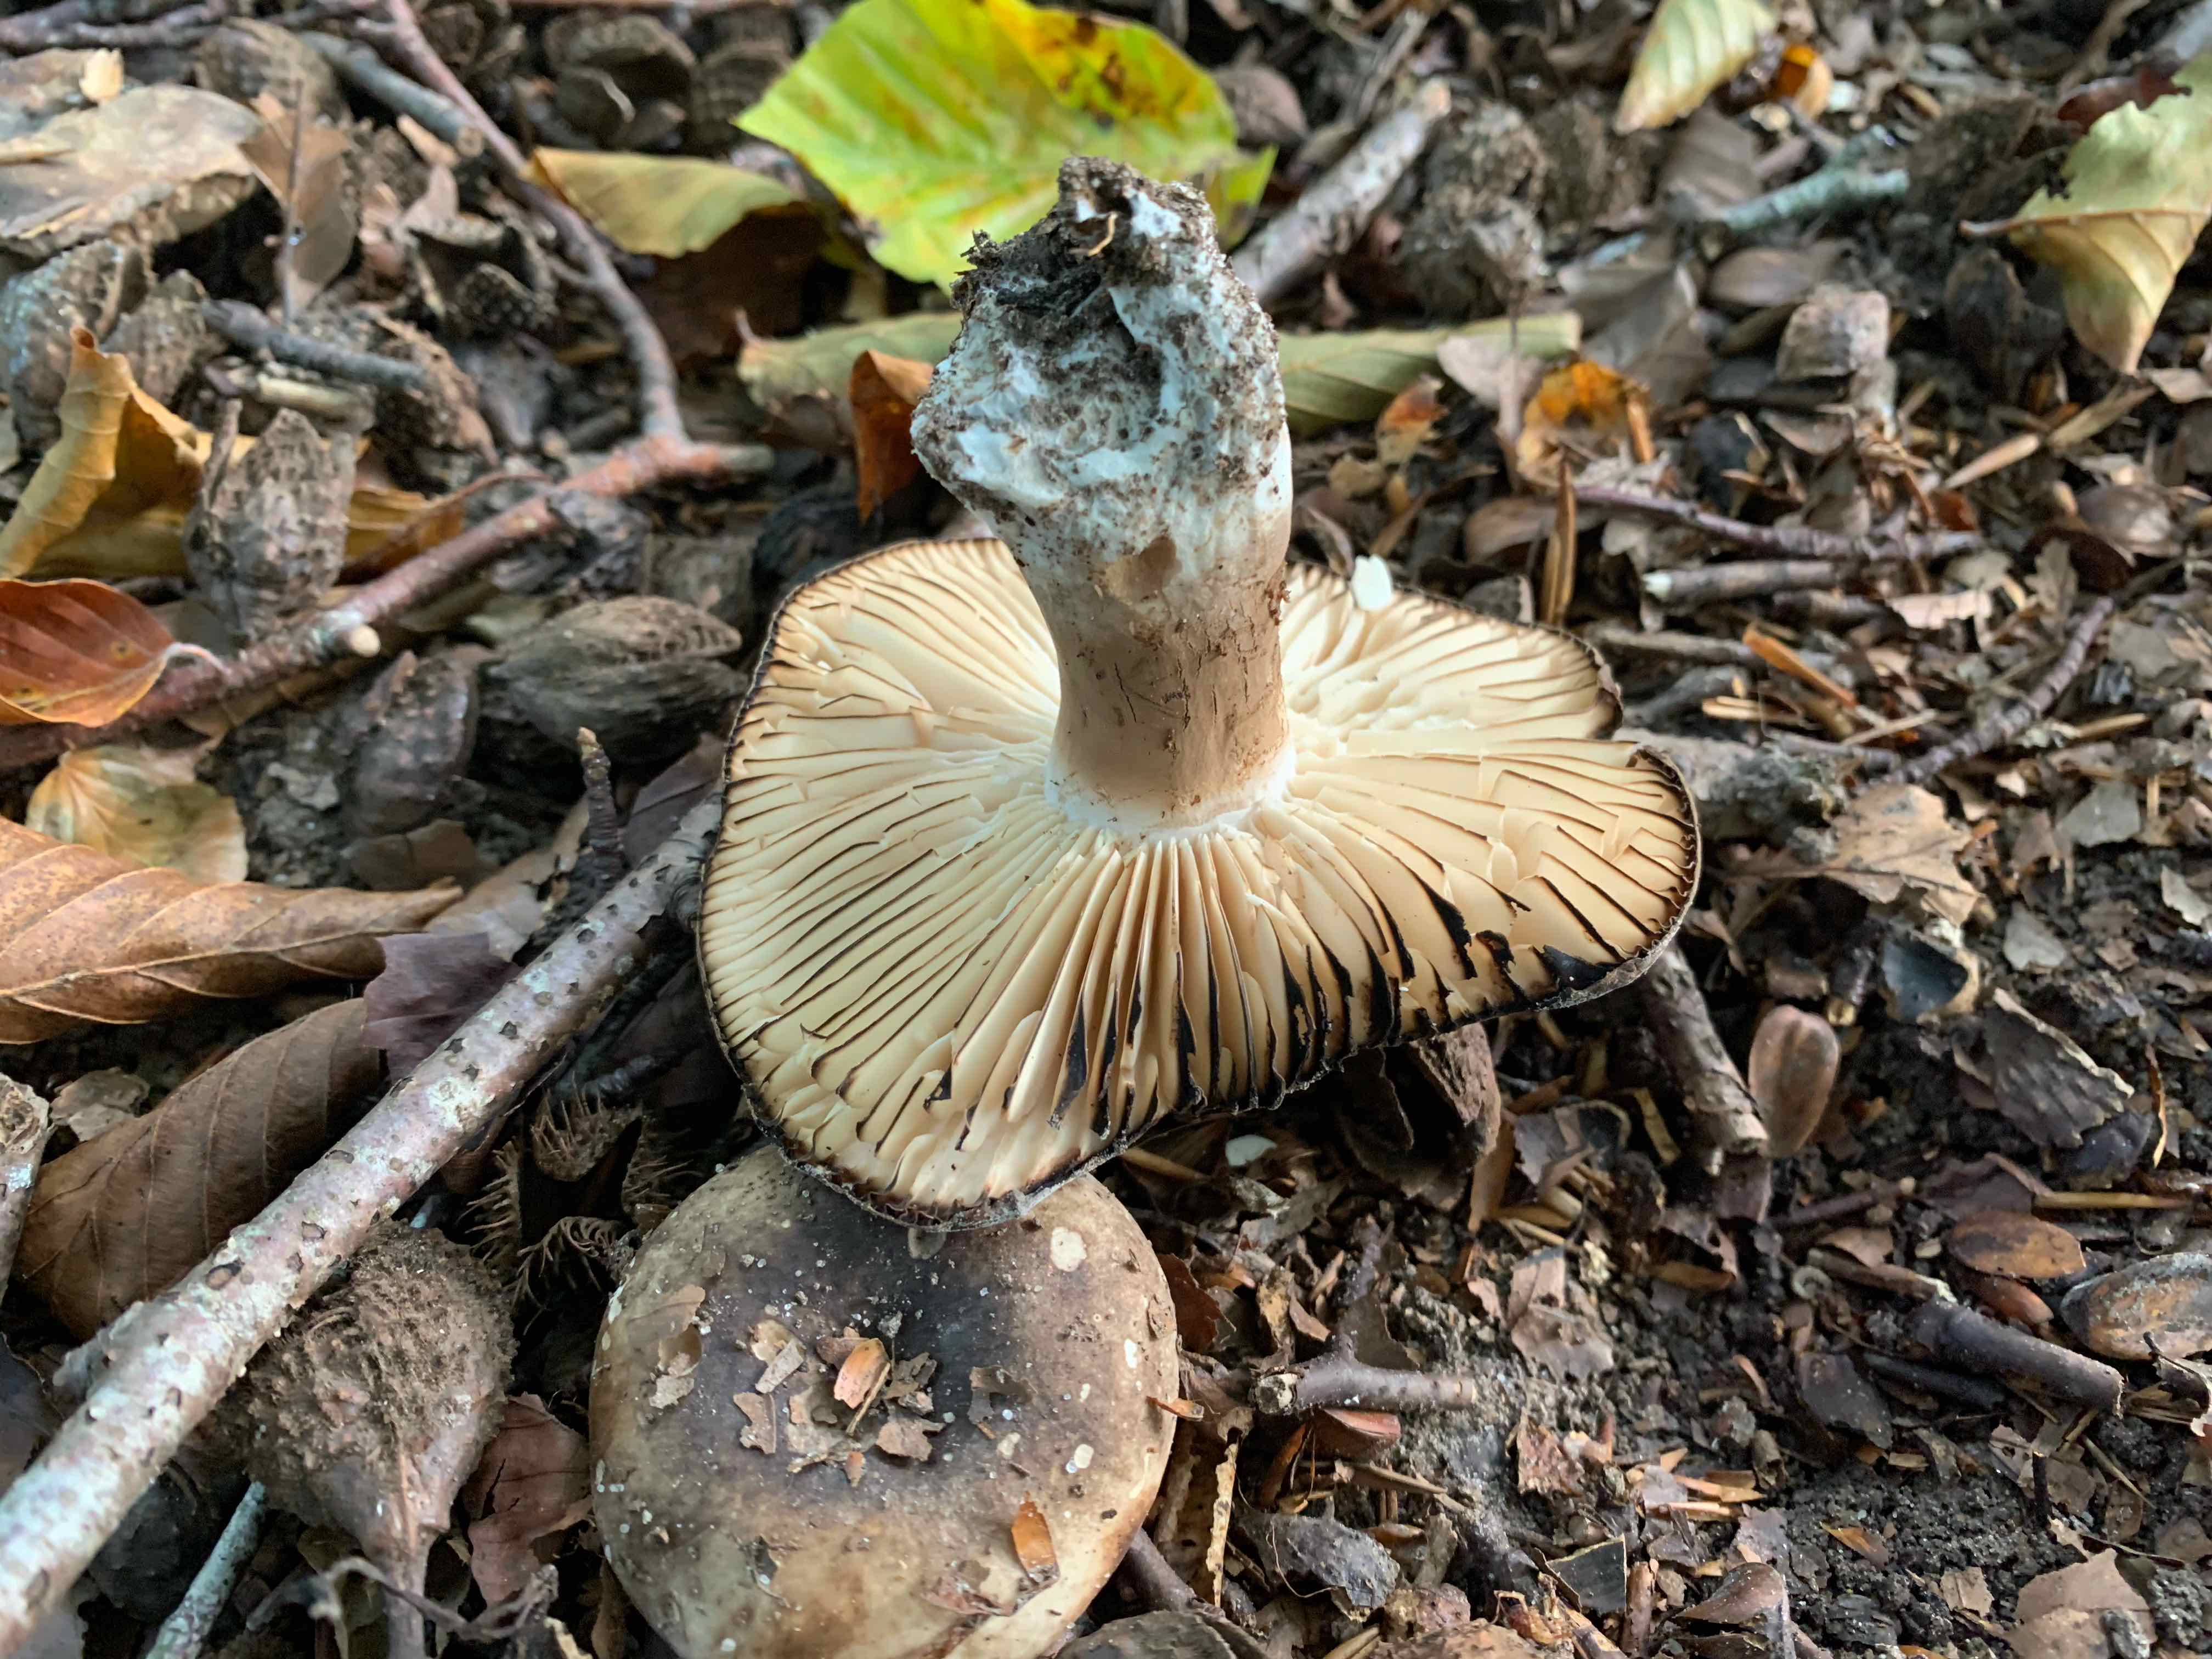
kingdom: Fungi
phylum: Basidiomycota
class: Agaricomycetes
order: Russulales
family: Russulaceae
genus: Russula
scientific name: Russula adusta
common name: sværtende skørhat
